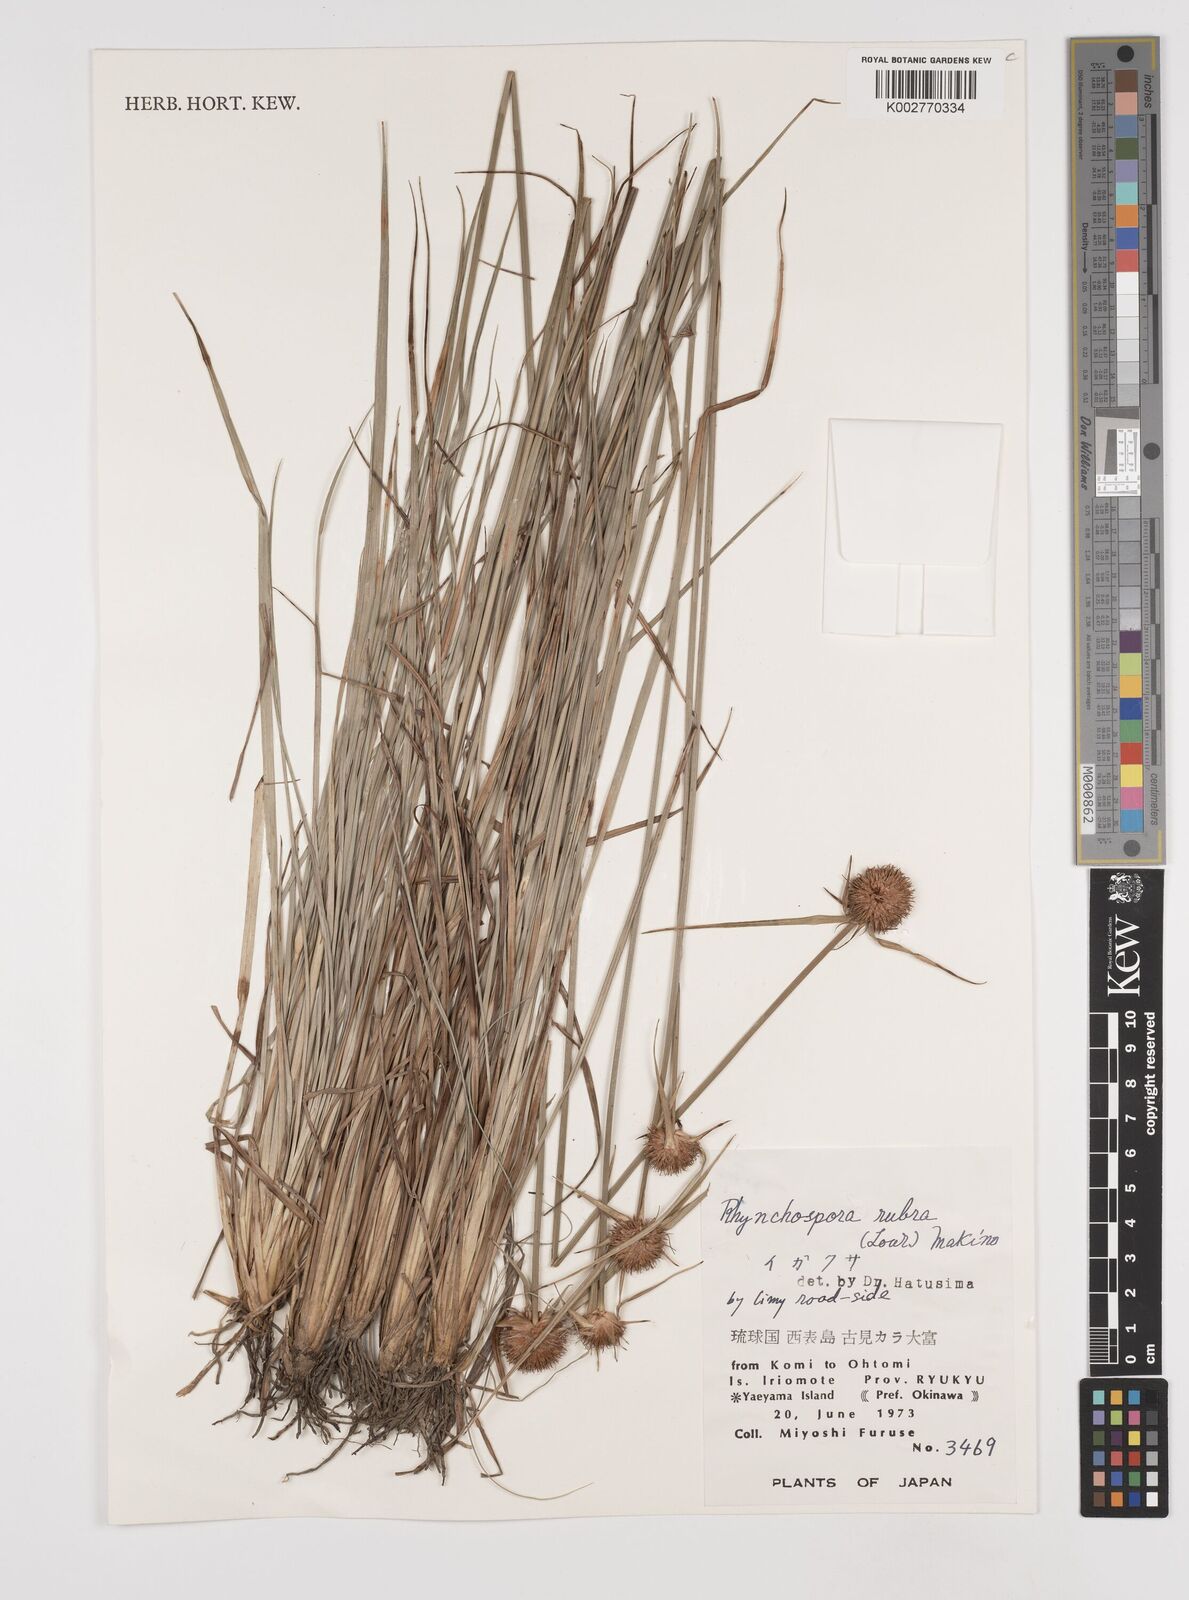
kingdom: Plantae
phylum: Tracheophyta
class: Liliopsida
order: Poales
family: Cyperaceae
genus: Rhynchospora
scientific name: Rhynchospora rubra
